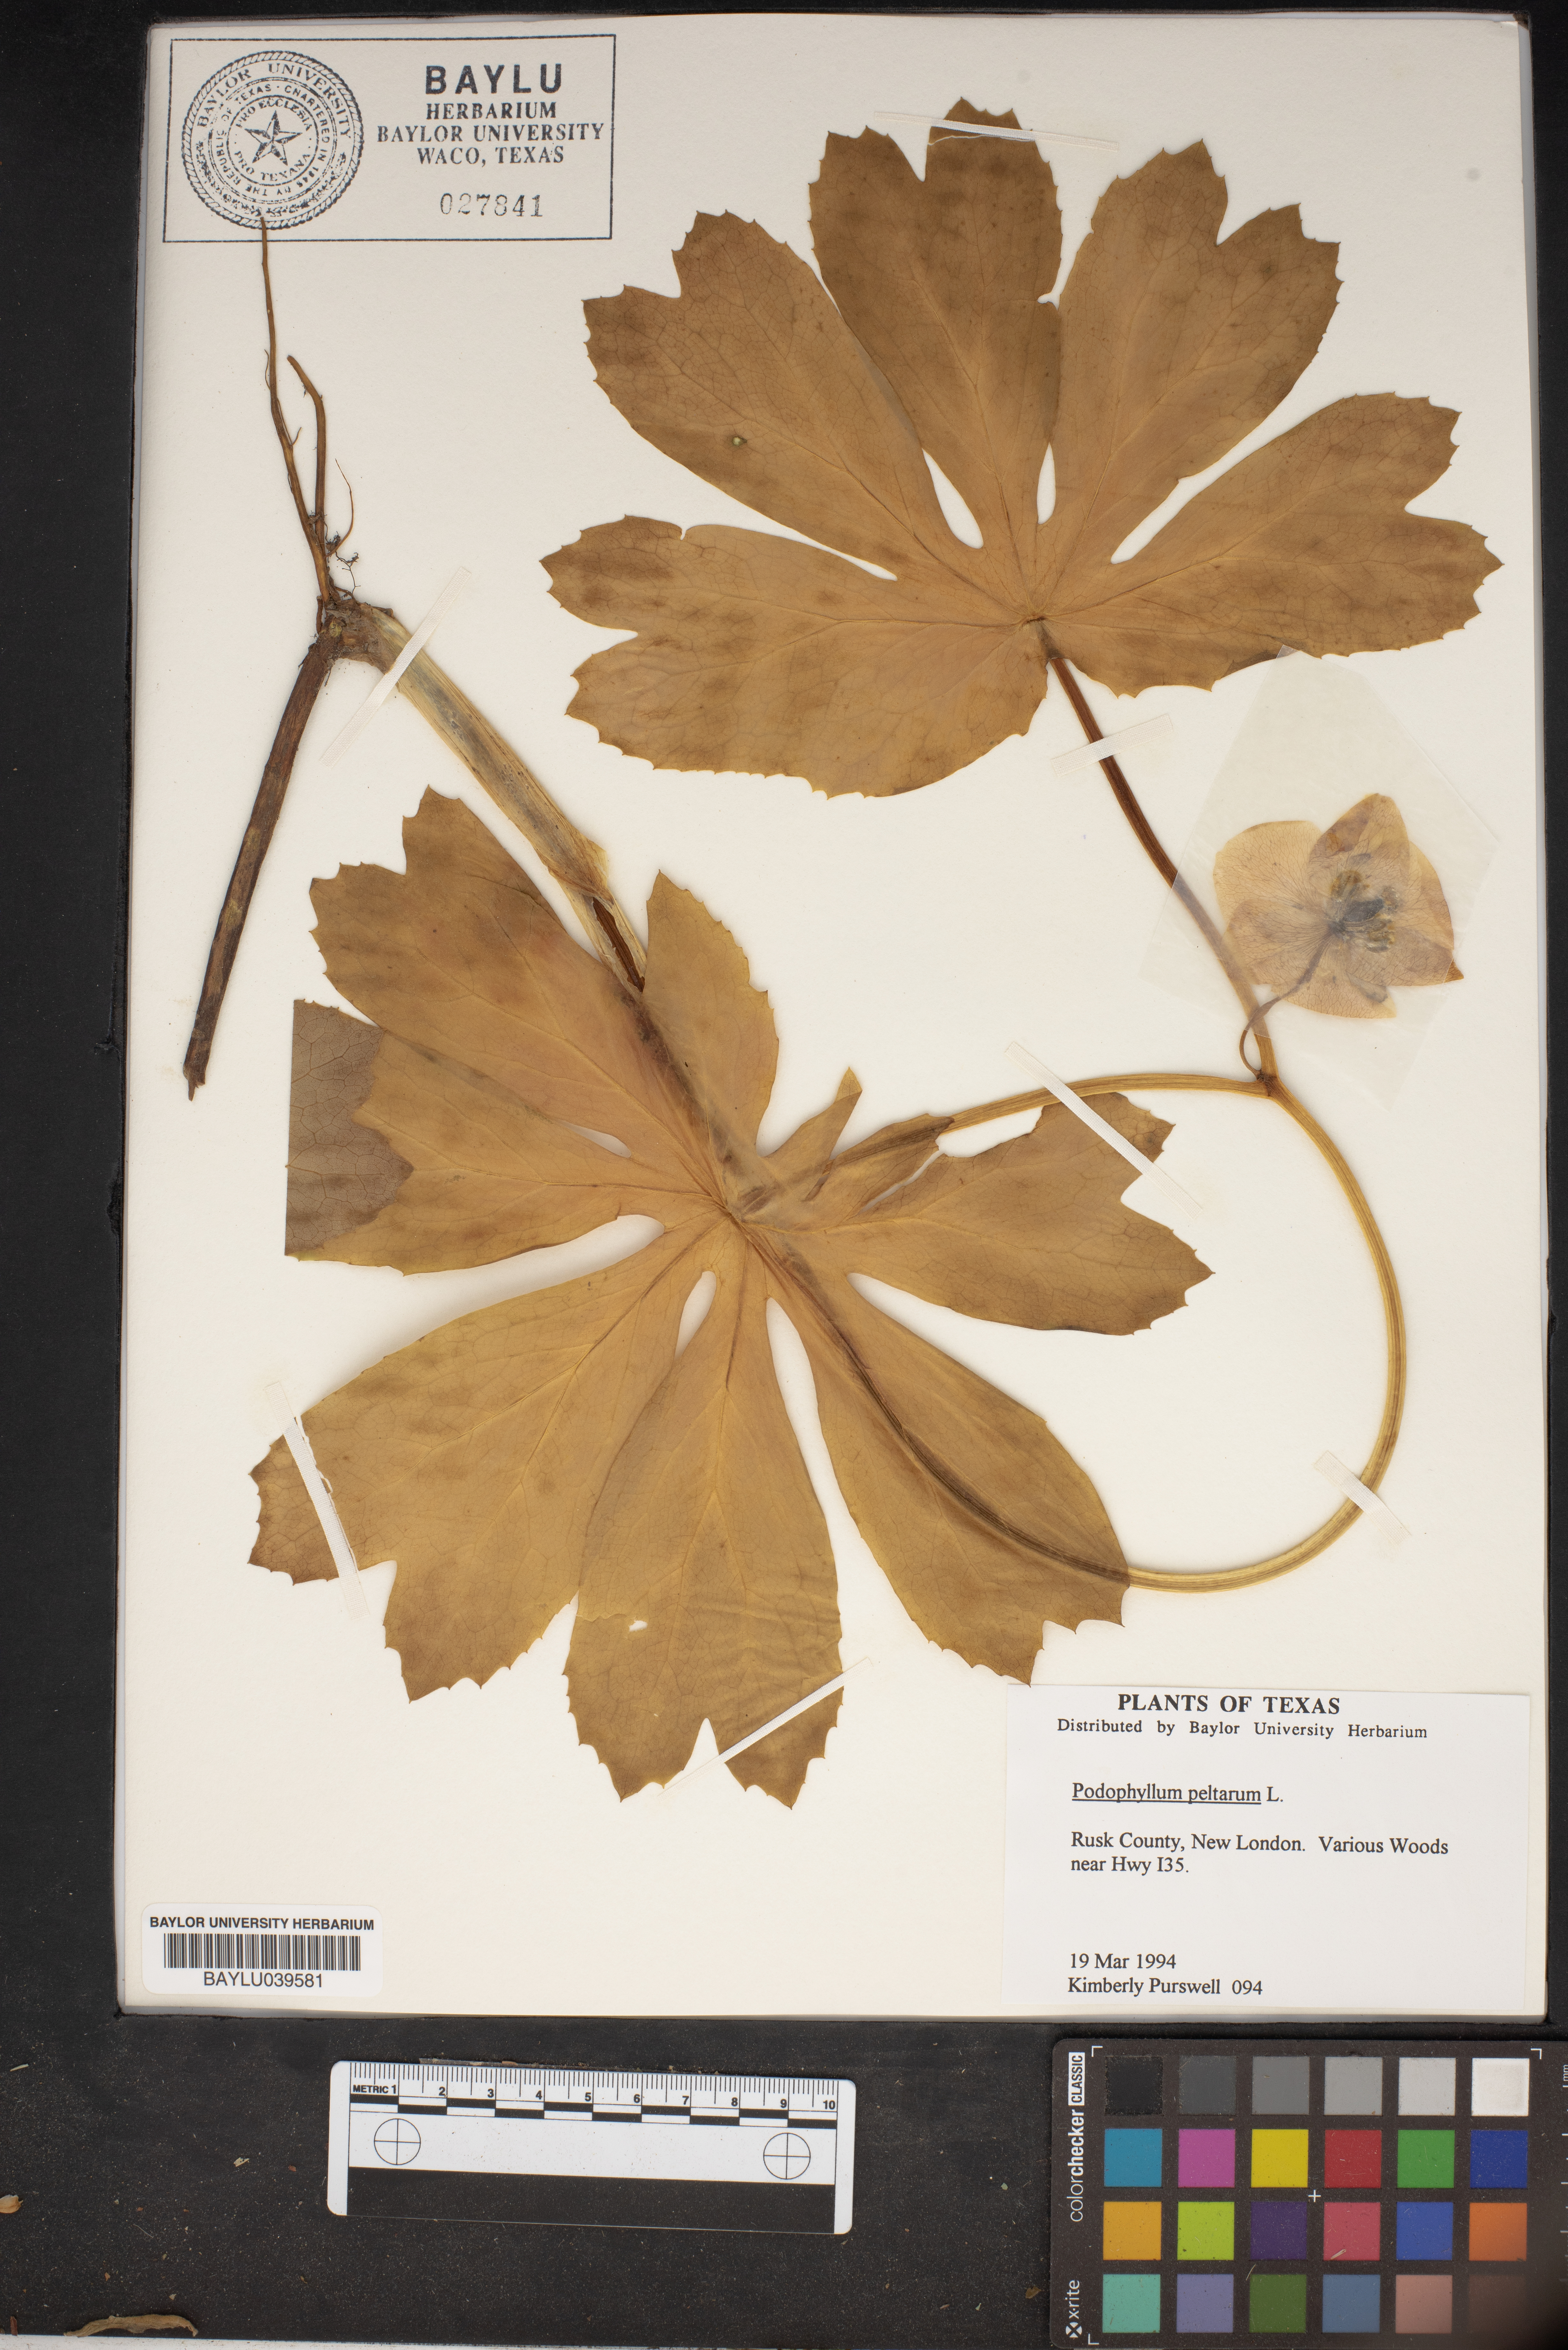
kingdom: Plantae
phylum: Tracheophyta
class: Magnoliopsida
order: Ranunculales
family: Berberidaceae
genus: Podophyllum
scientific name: Podophyllum peltatum
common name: Wild mandrake
